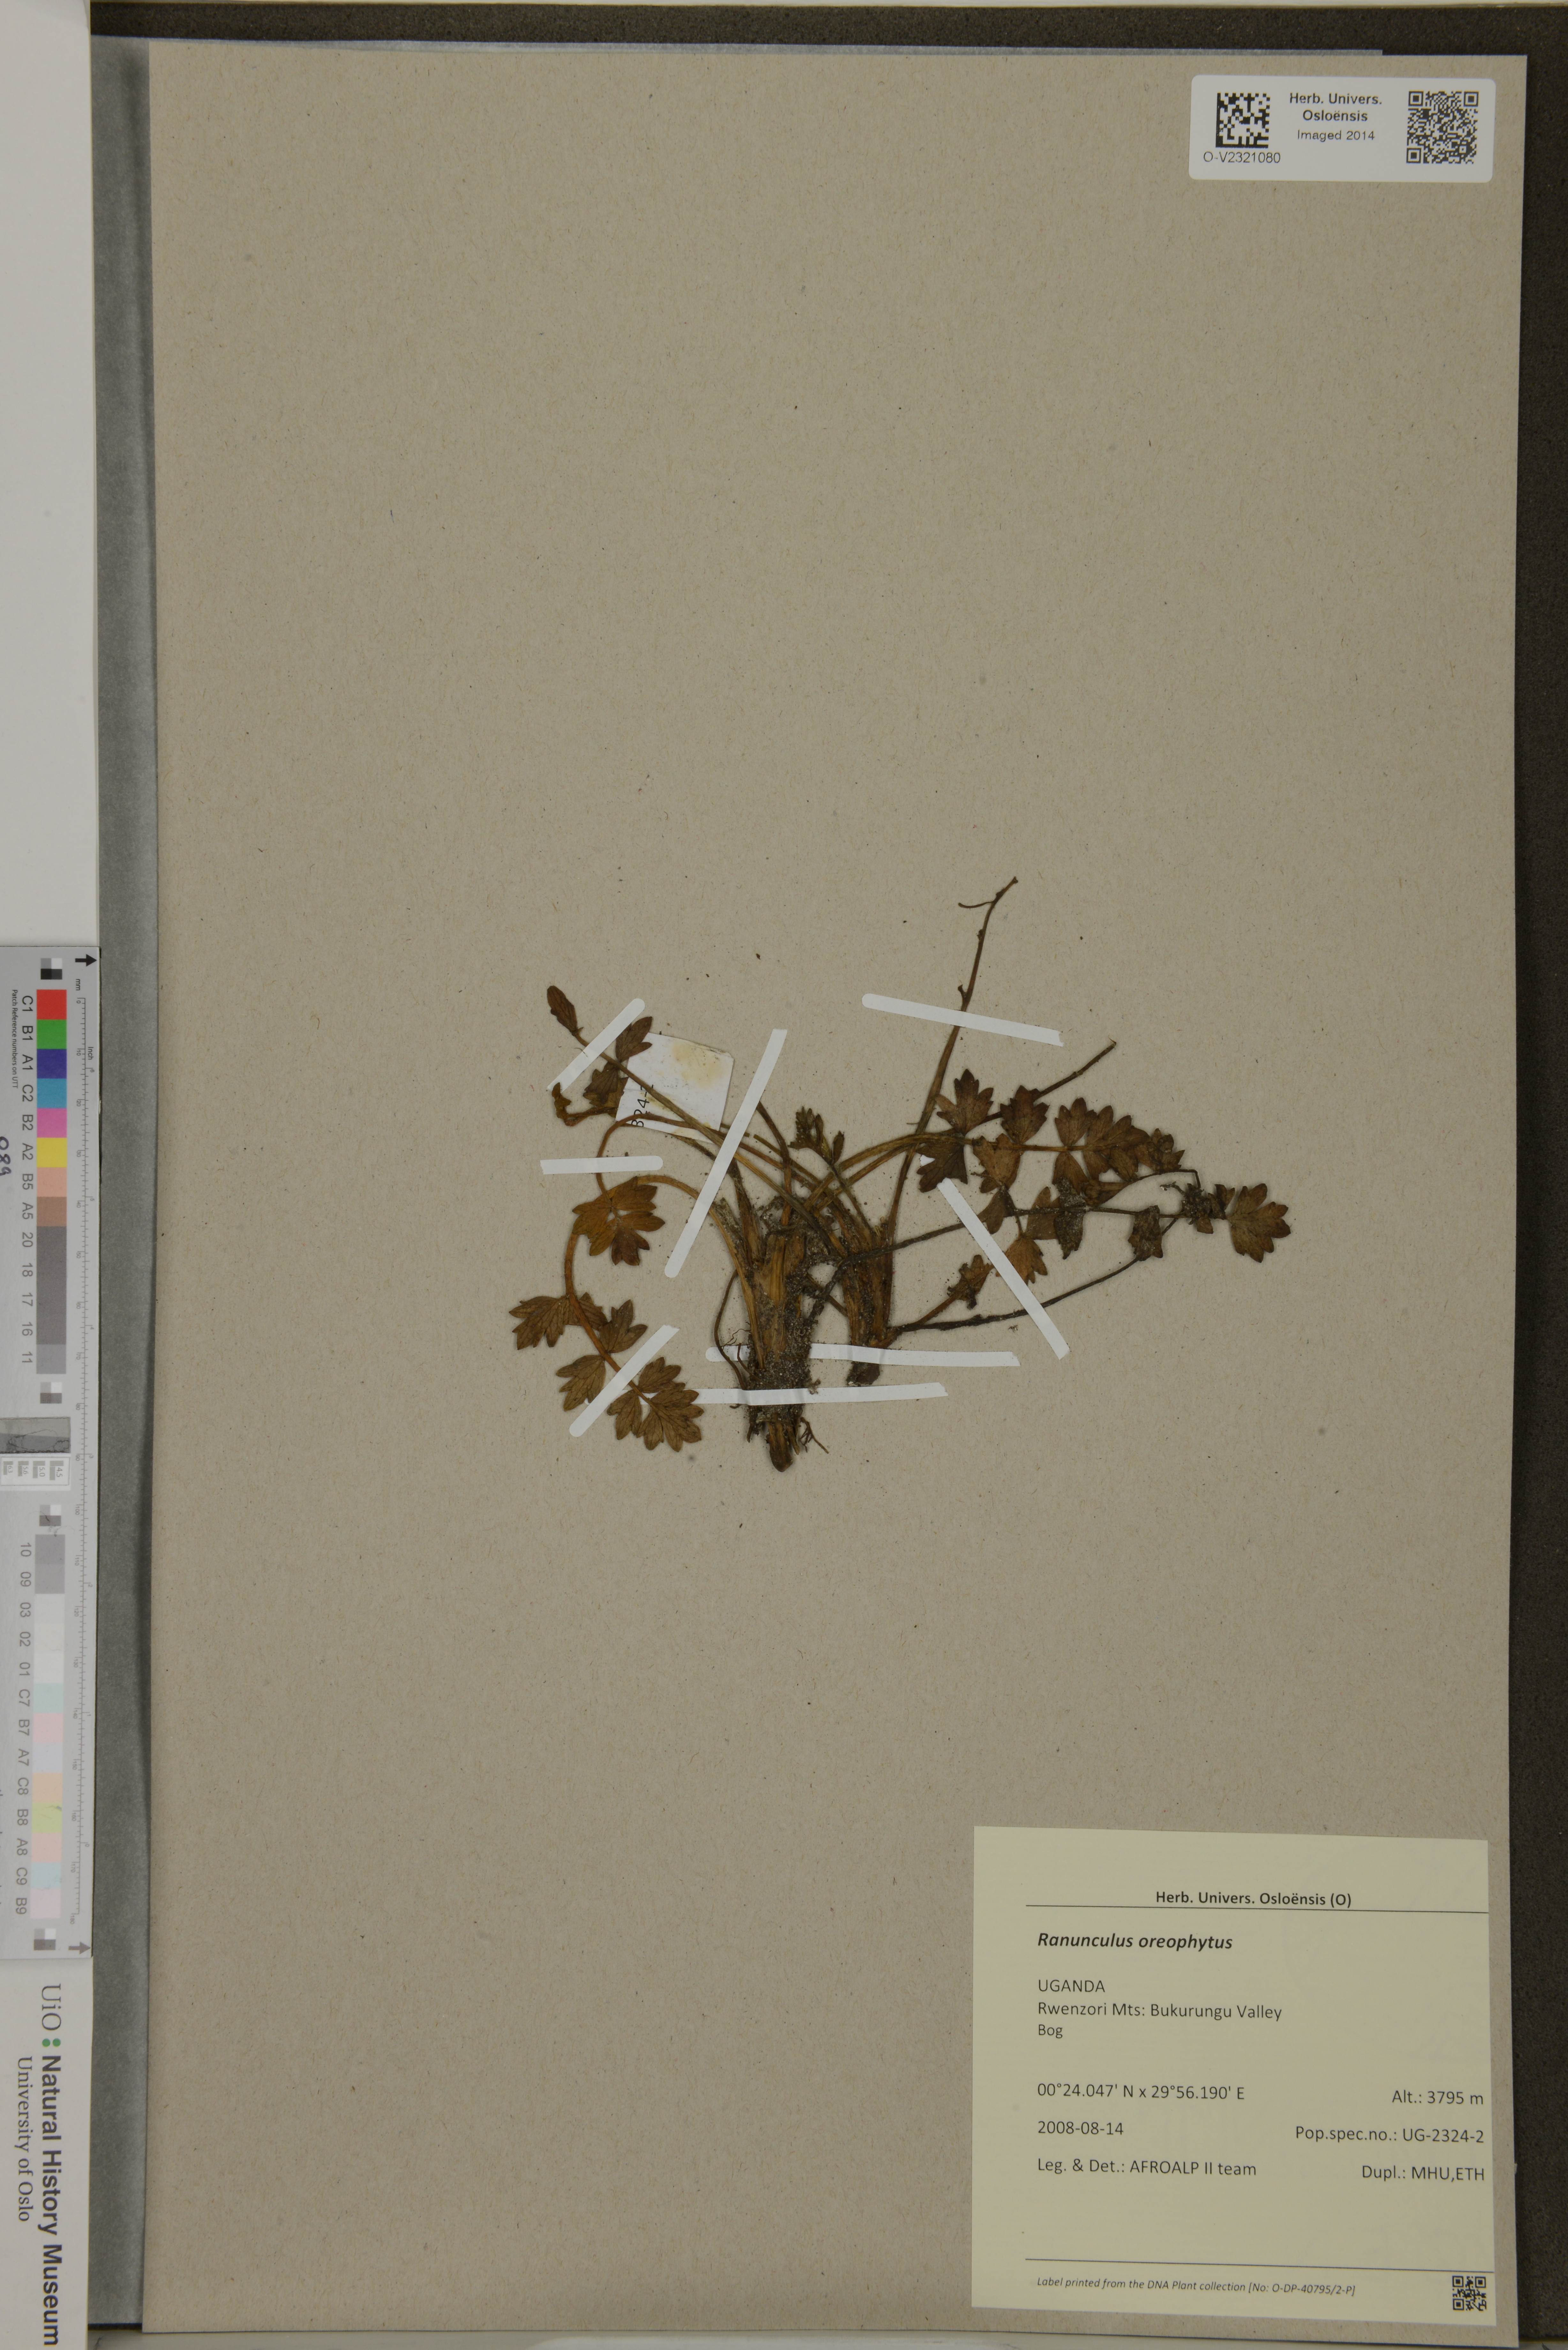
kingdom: Plantae
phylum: Tracheophyta
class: Magnoliopsida
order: Ranunculales
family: Ranunculaceae
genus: Ranunculus
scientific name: Ranunculus oreophytus
